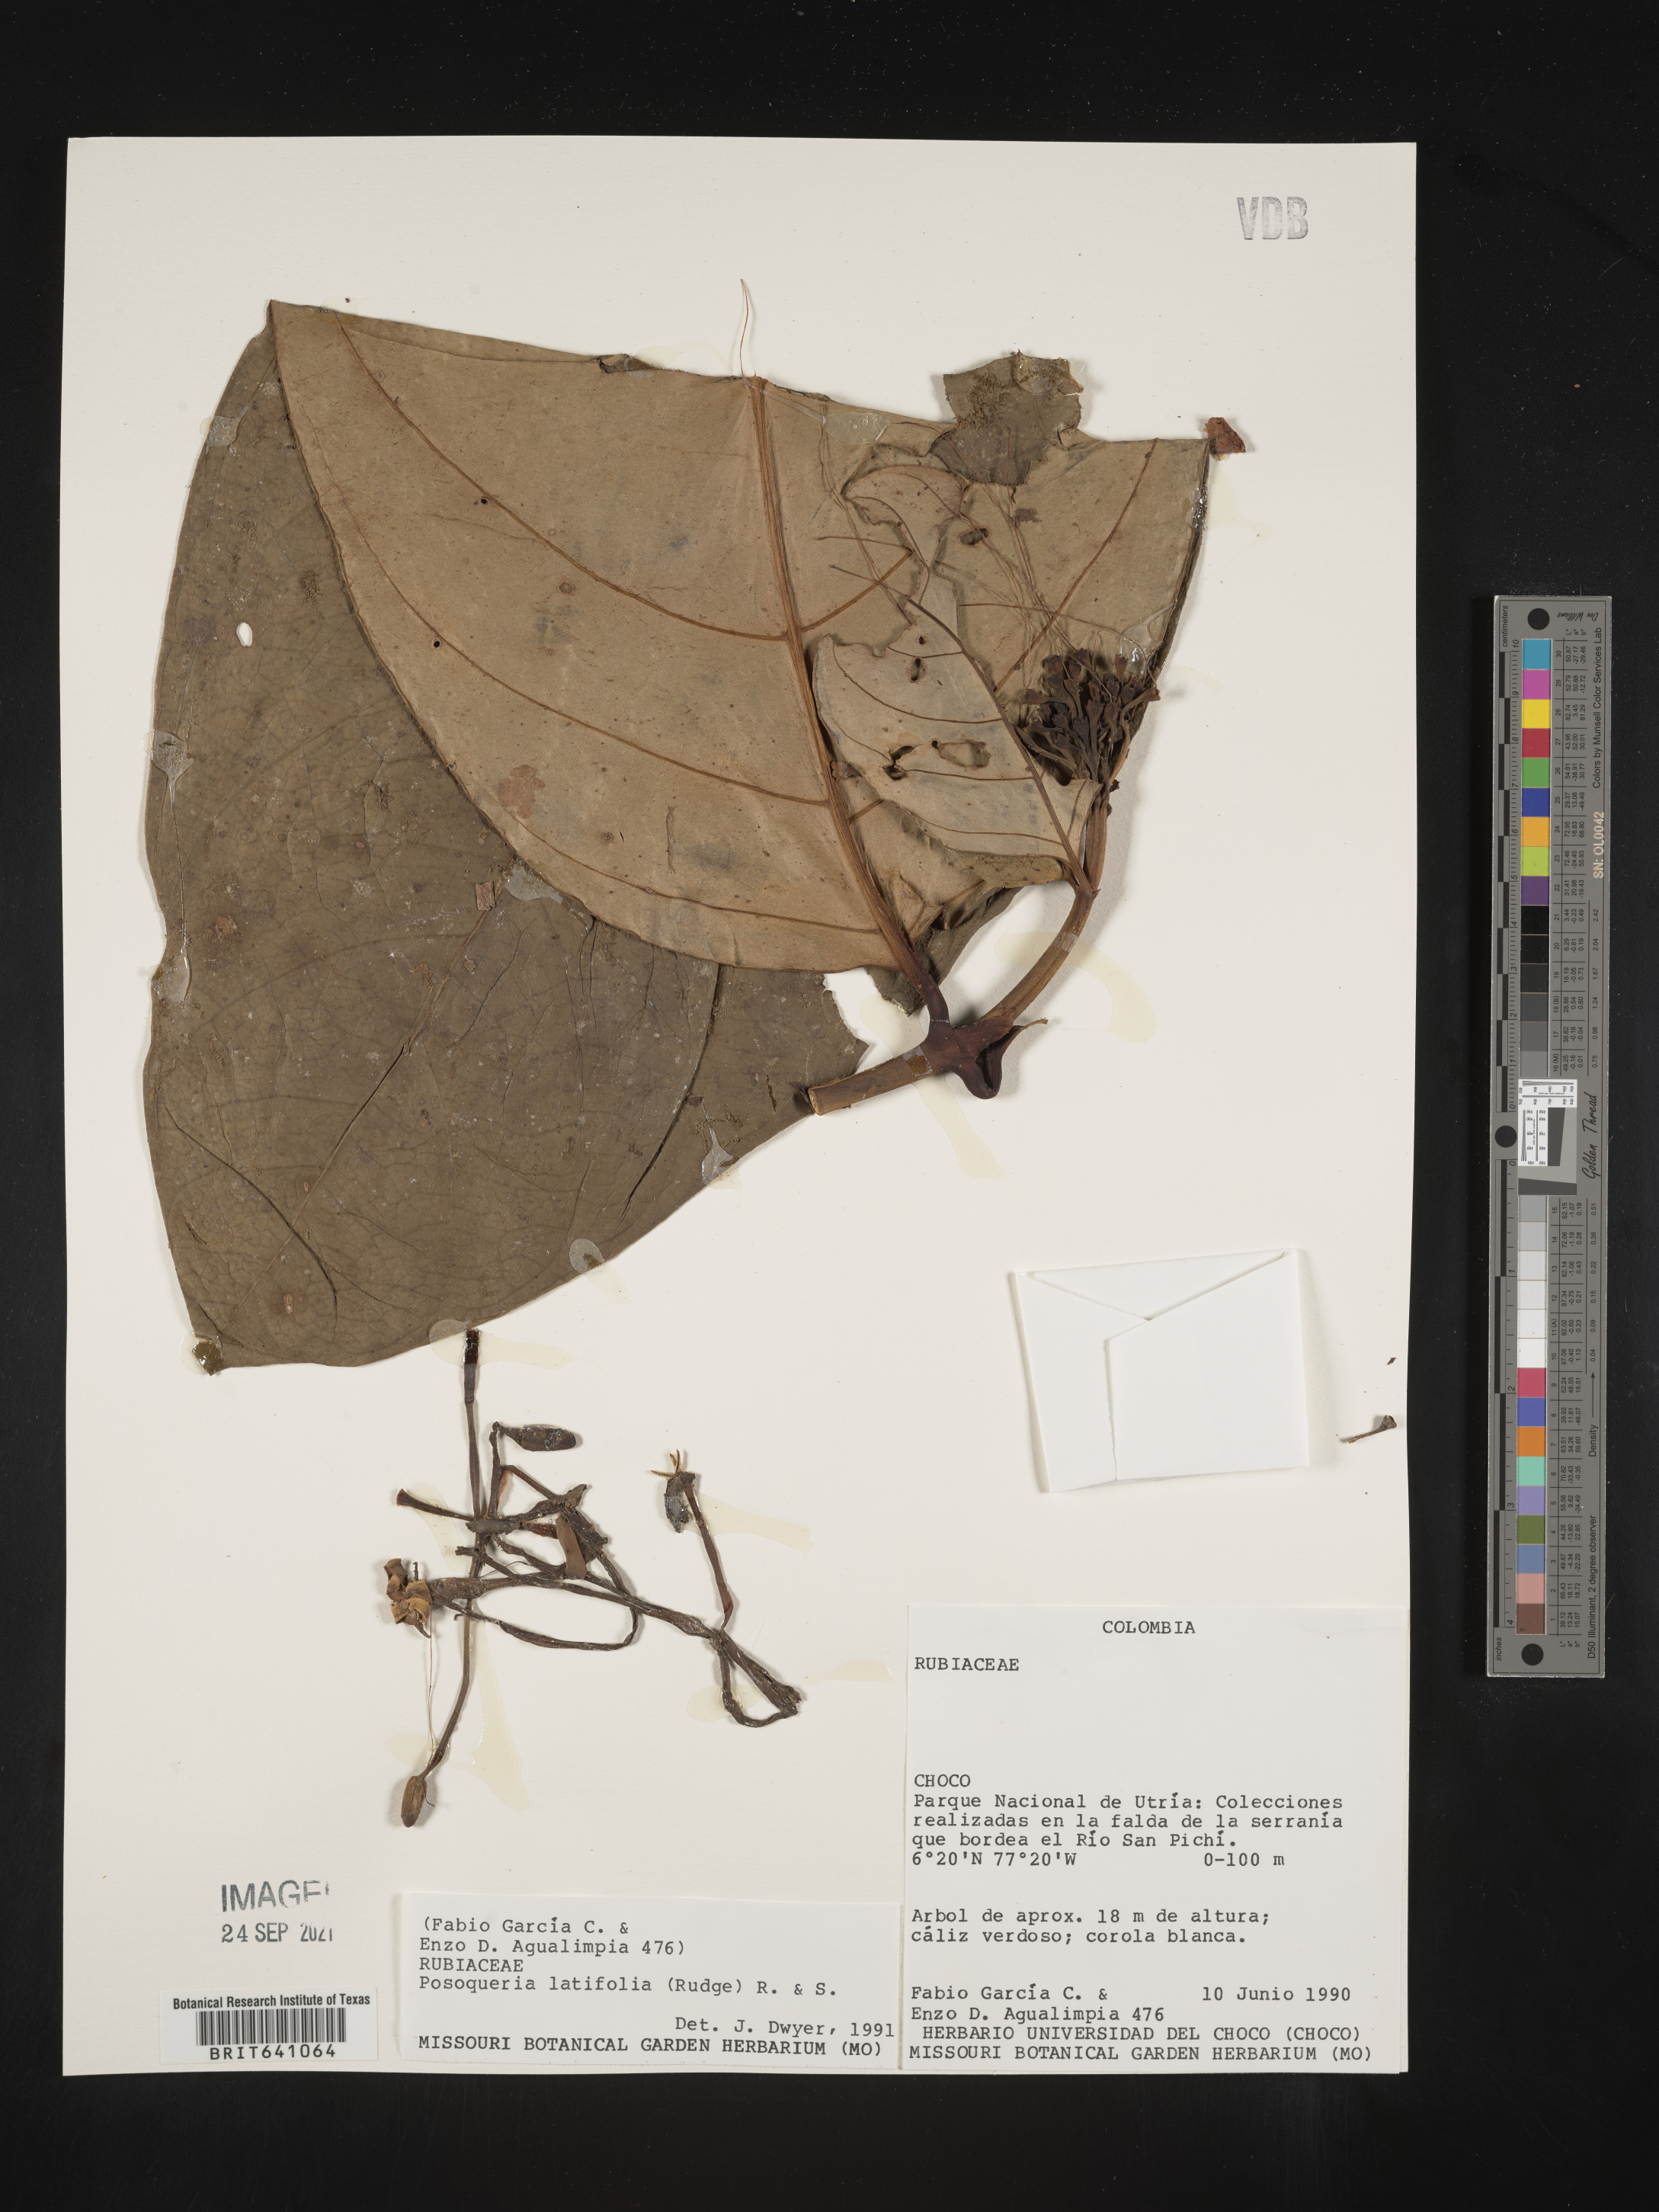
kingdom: Plantae
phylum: Tracheophyta
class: Magnoliopsida
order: Gentianales
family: Rubiaceae
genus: Posoqueria
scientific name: Posoqueria
